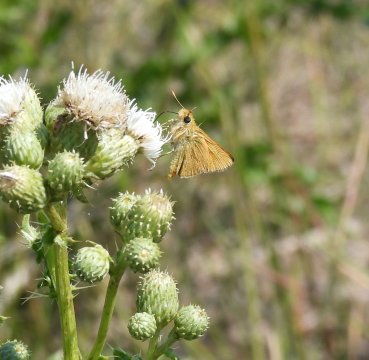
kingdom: Animalia
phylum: Arthropoda
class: Insecta
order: Lepidoptera
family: Hesperiidae
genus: Ochlodes
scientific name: Ochlodes sylvanoides
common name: Woodland Skipper
